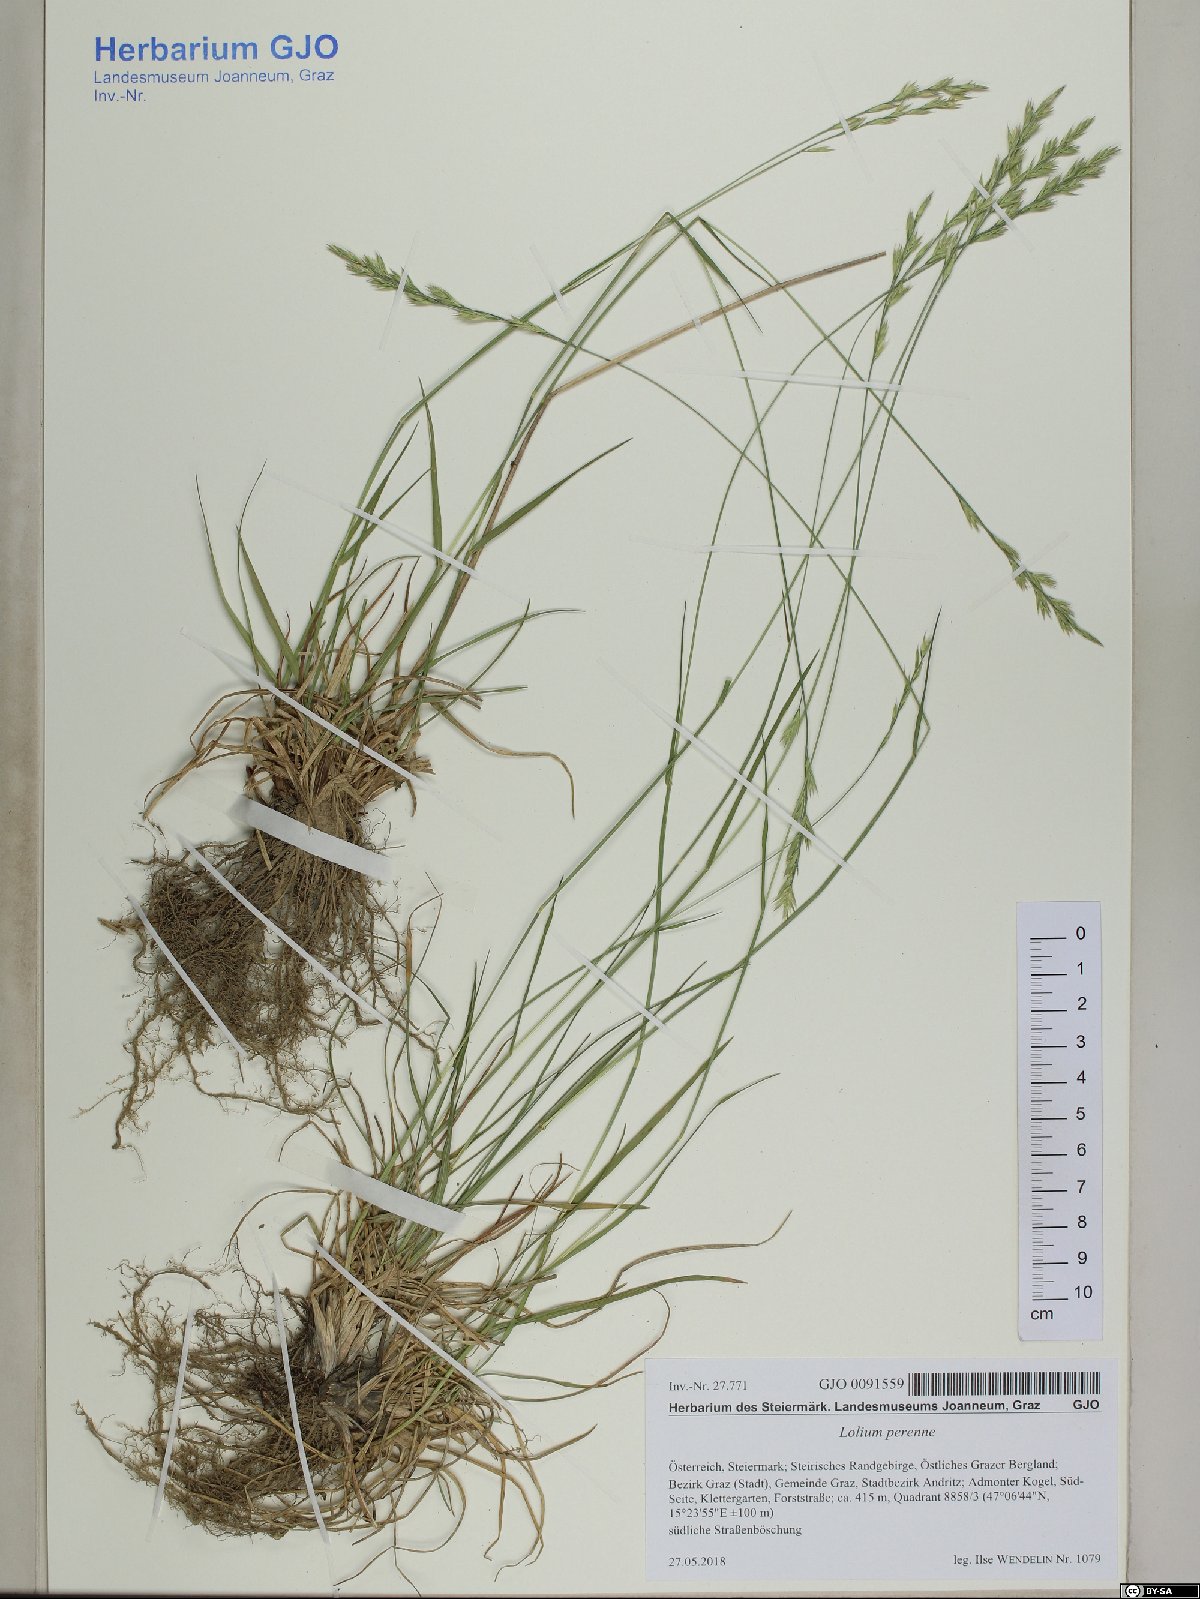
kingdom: Plantae
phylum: Tracheophyta
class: Liliopsida
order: Poales
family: Poaceae
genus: Lolium
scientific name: Lolium perenne
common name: Perennial ryegrass
